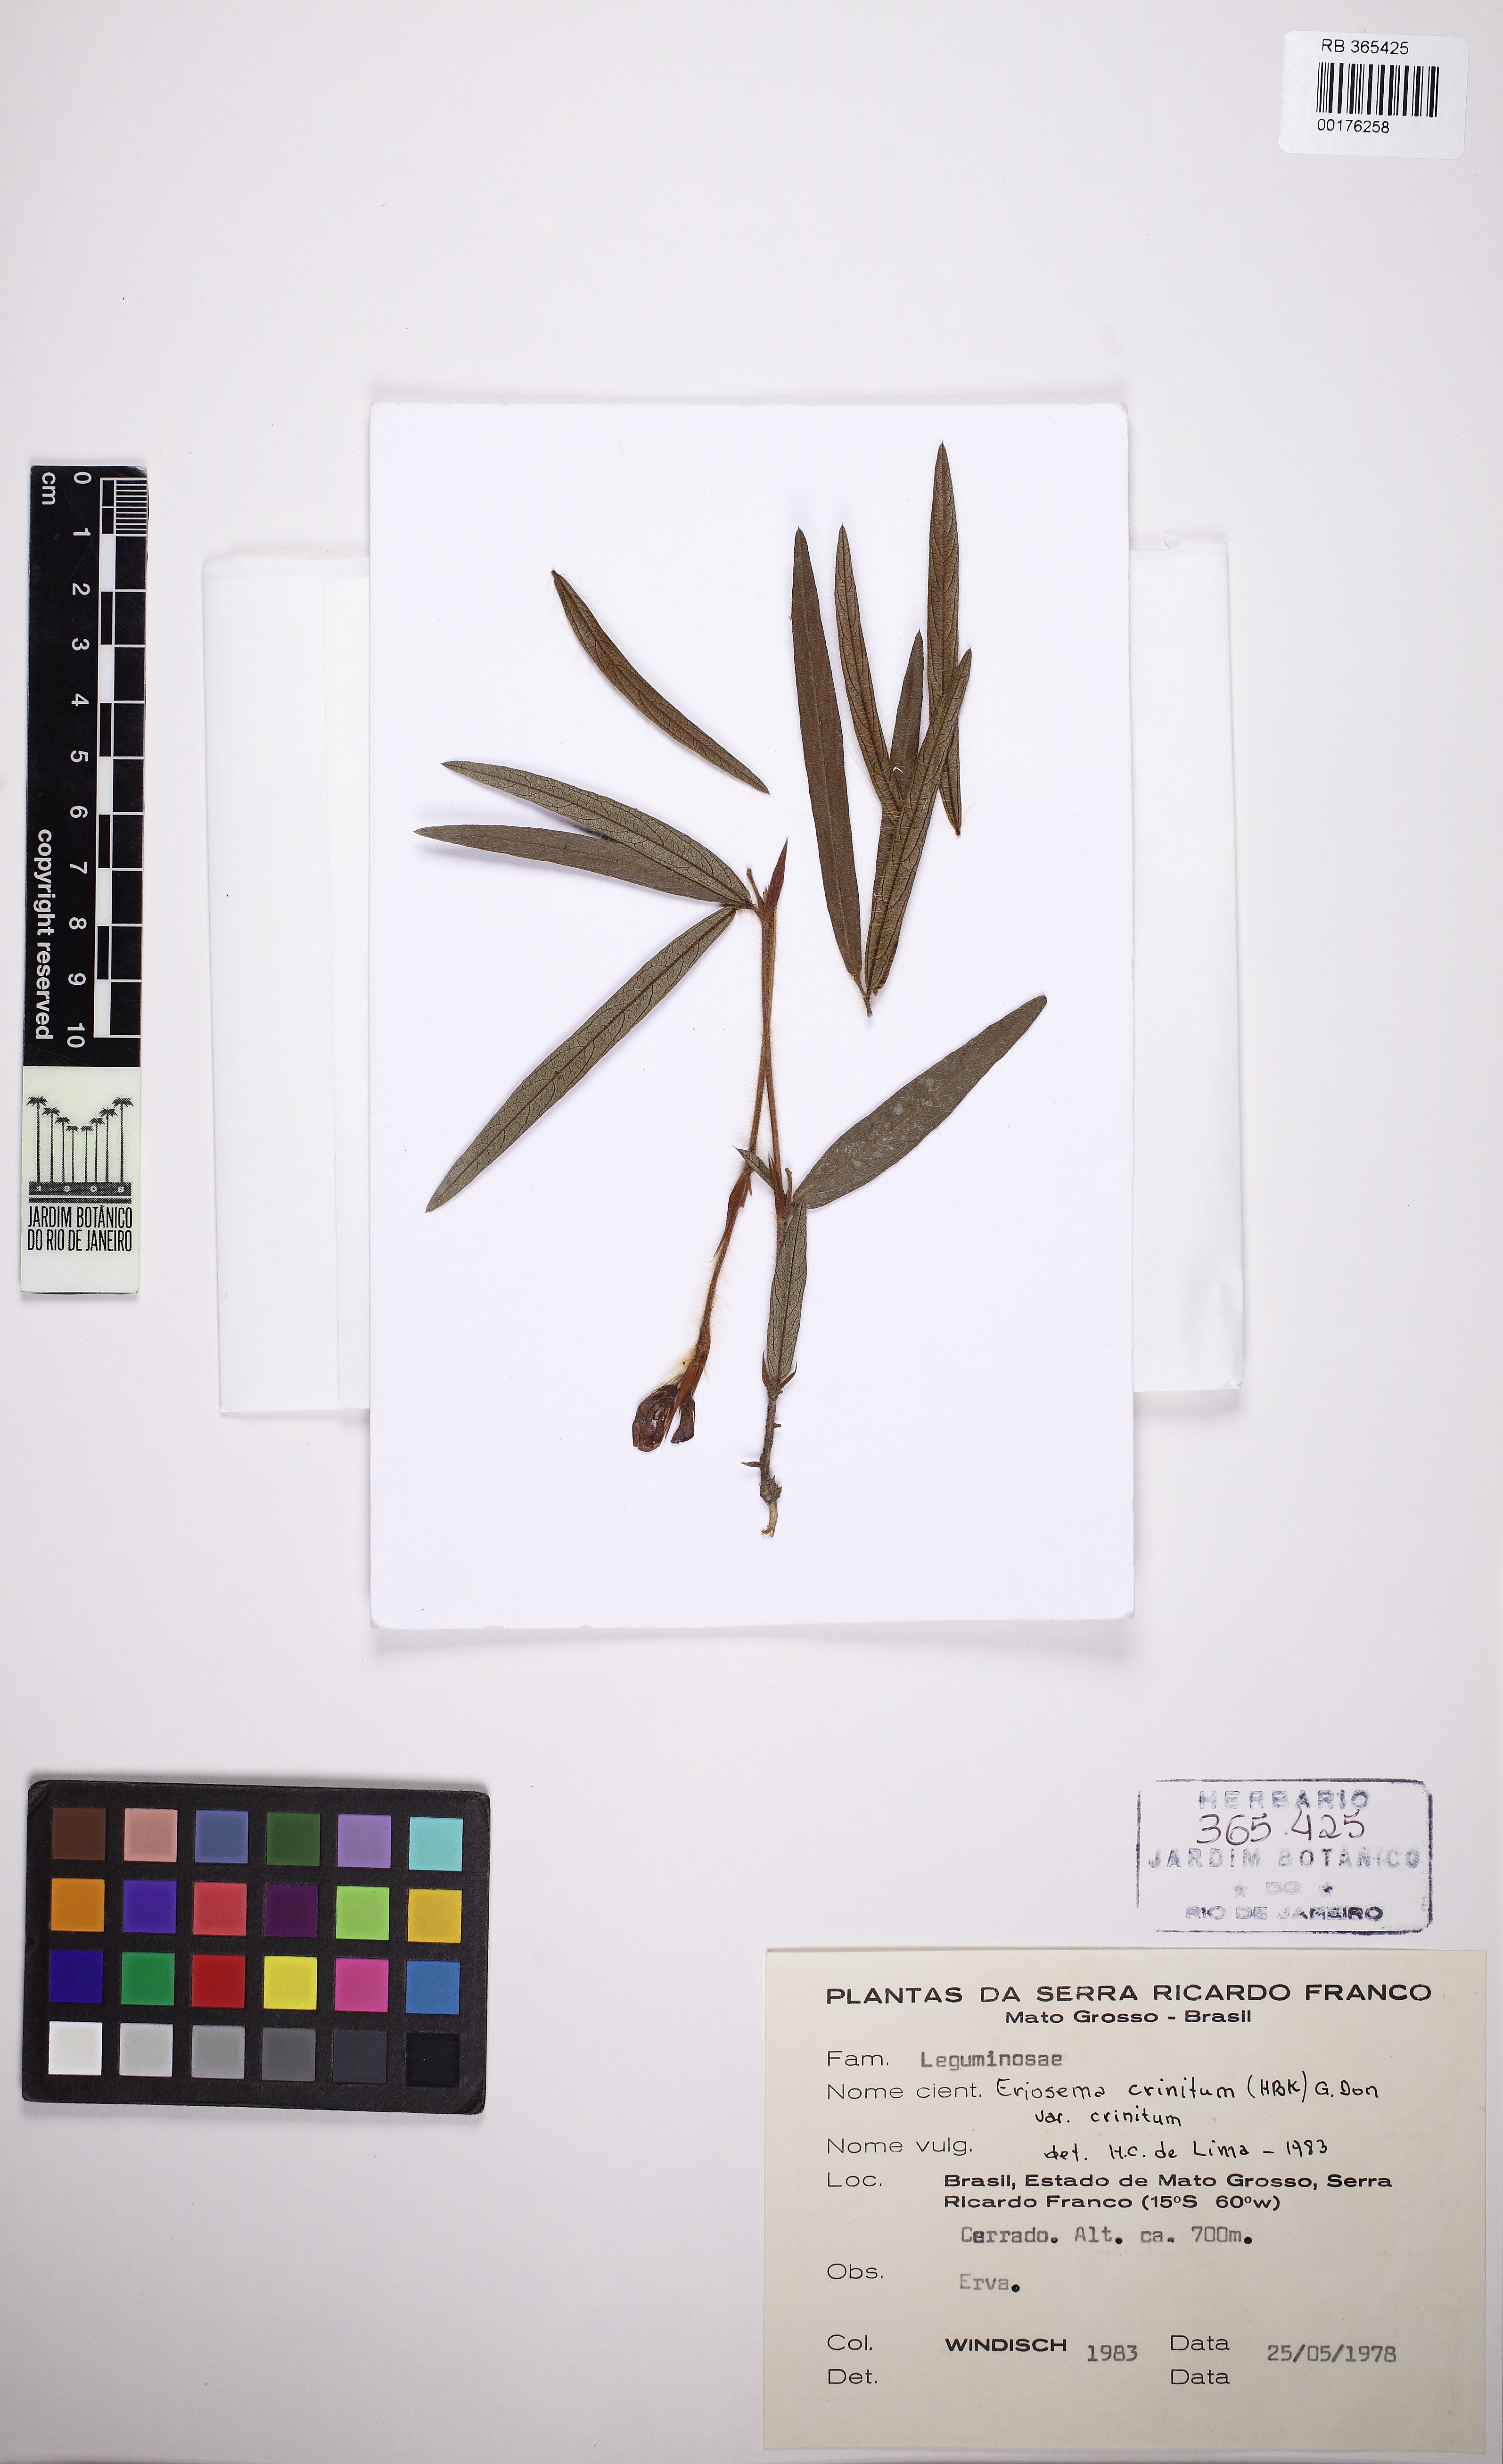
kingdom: Plantae
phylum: Tracheophyta
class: Magnoliopsida
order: Fabales
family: Fabaceae
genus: Eriosema
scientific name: Eriosema crinitum
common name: Sand pea
